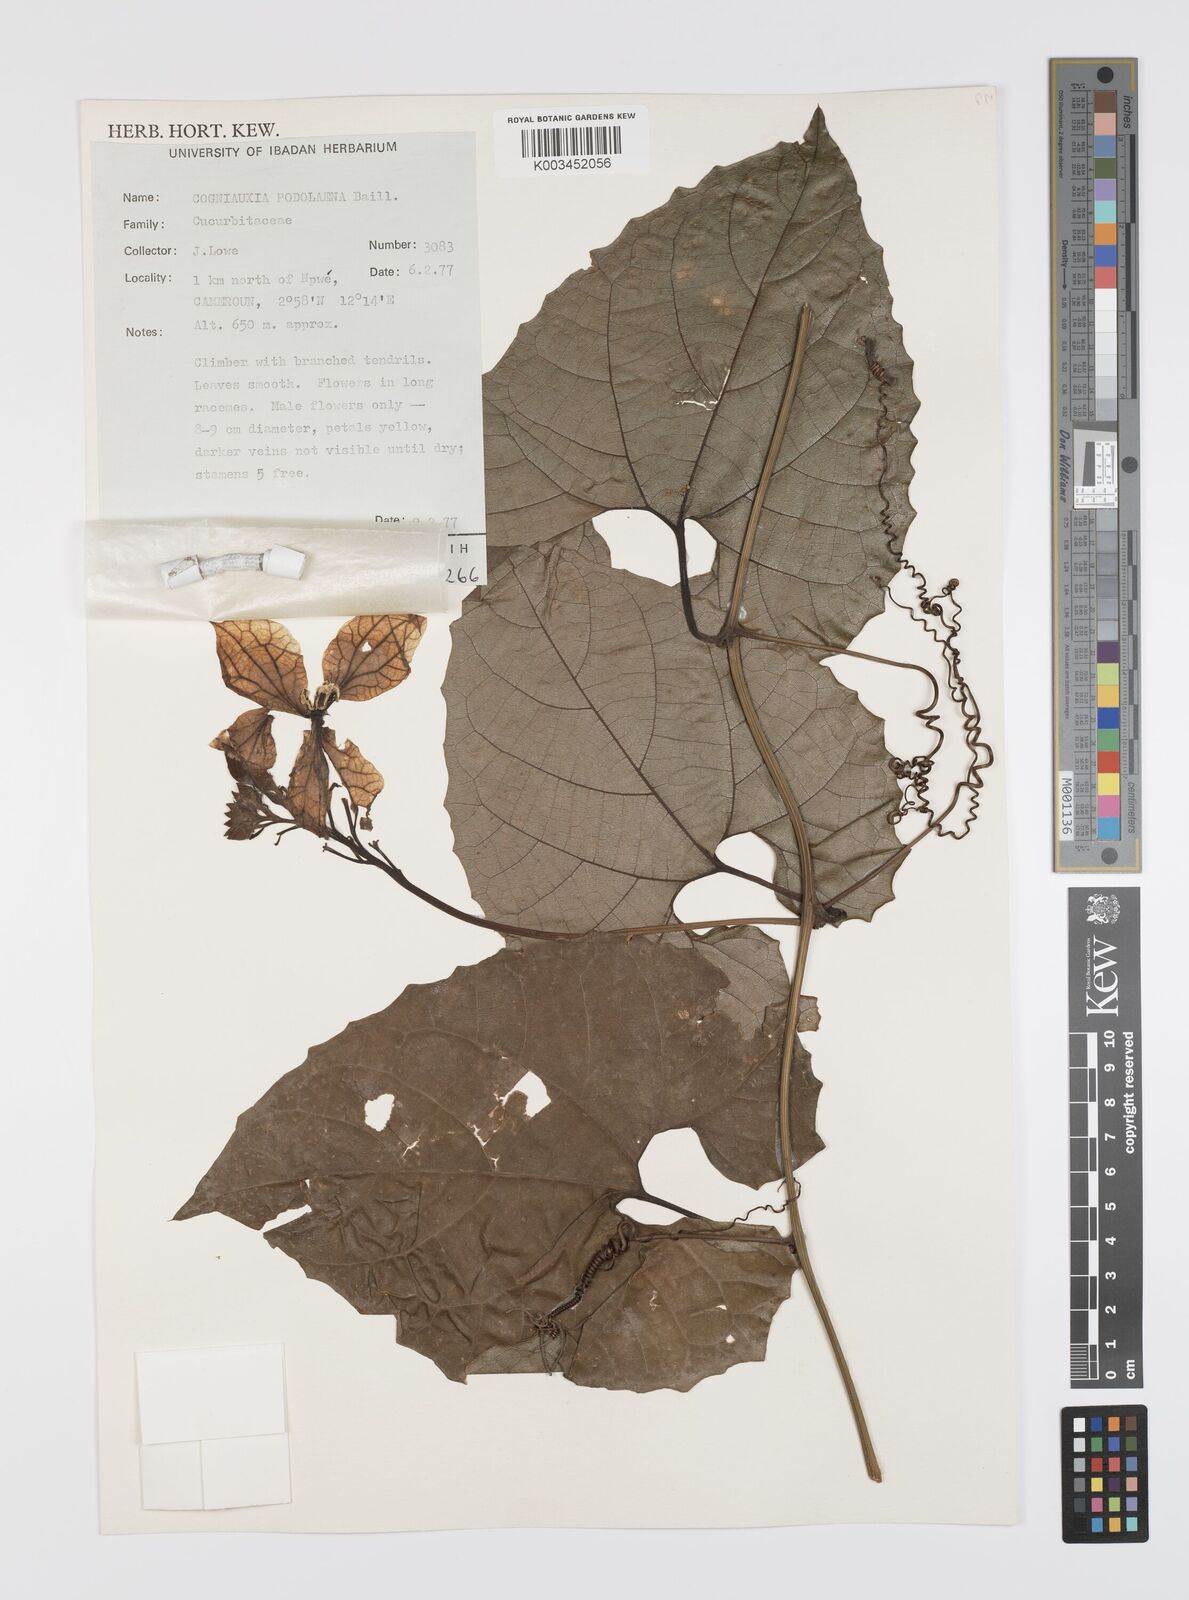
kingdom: Plantae
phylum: Tracheophyta
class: Magnoliopsida
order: Cucurbitales
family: Cucurbitaceae
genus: Cogniauxia
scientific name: Cogniauxia podolaena
